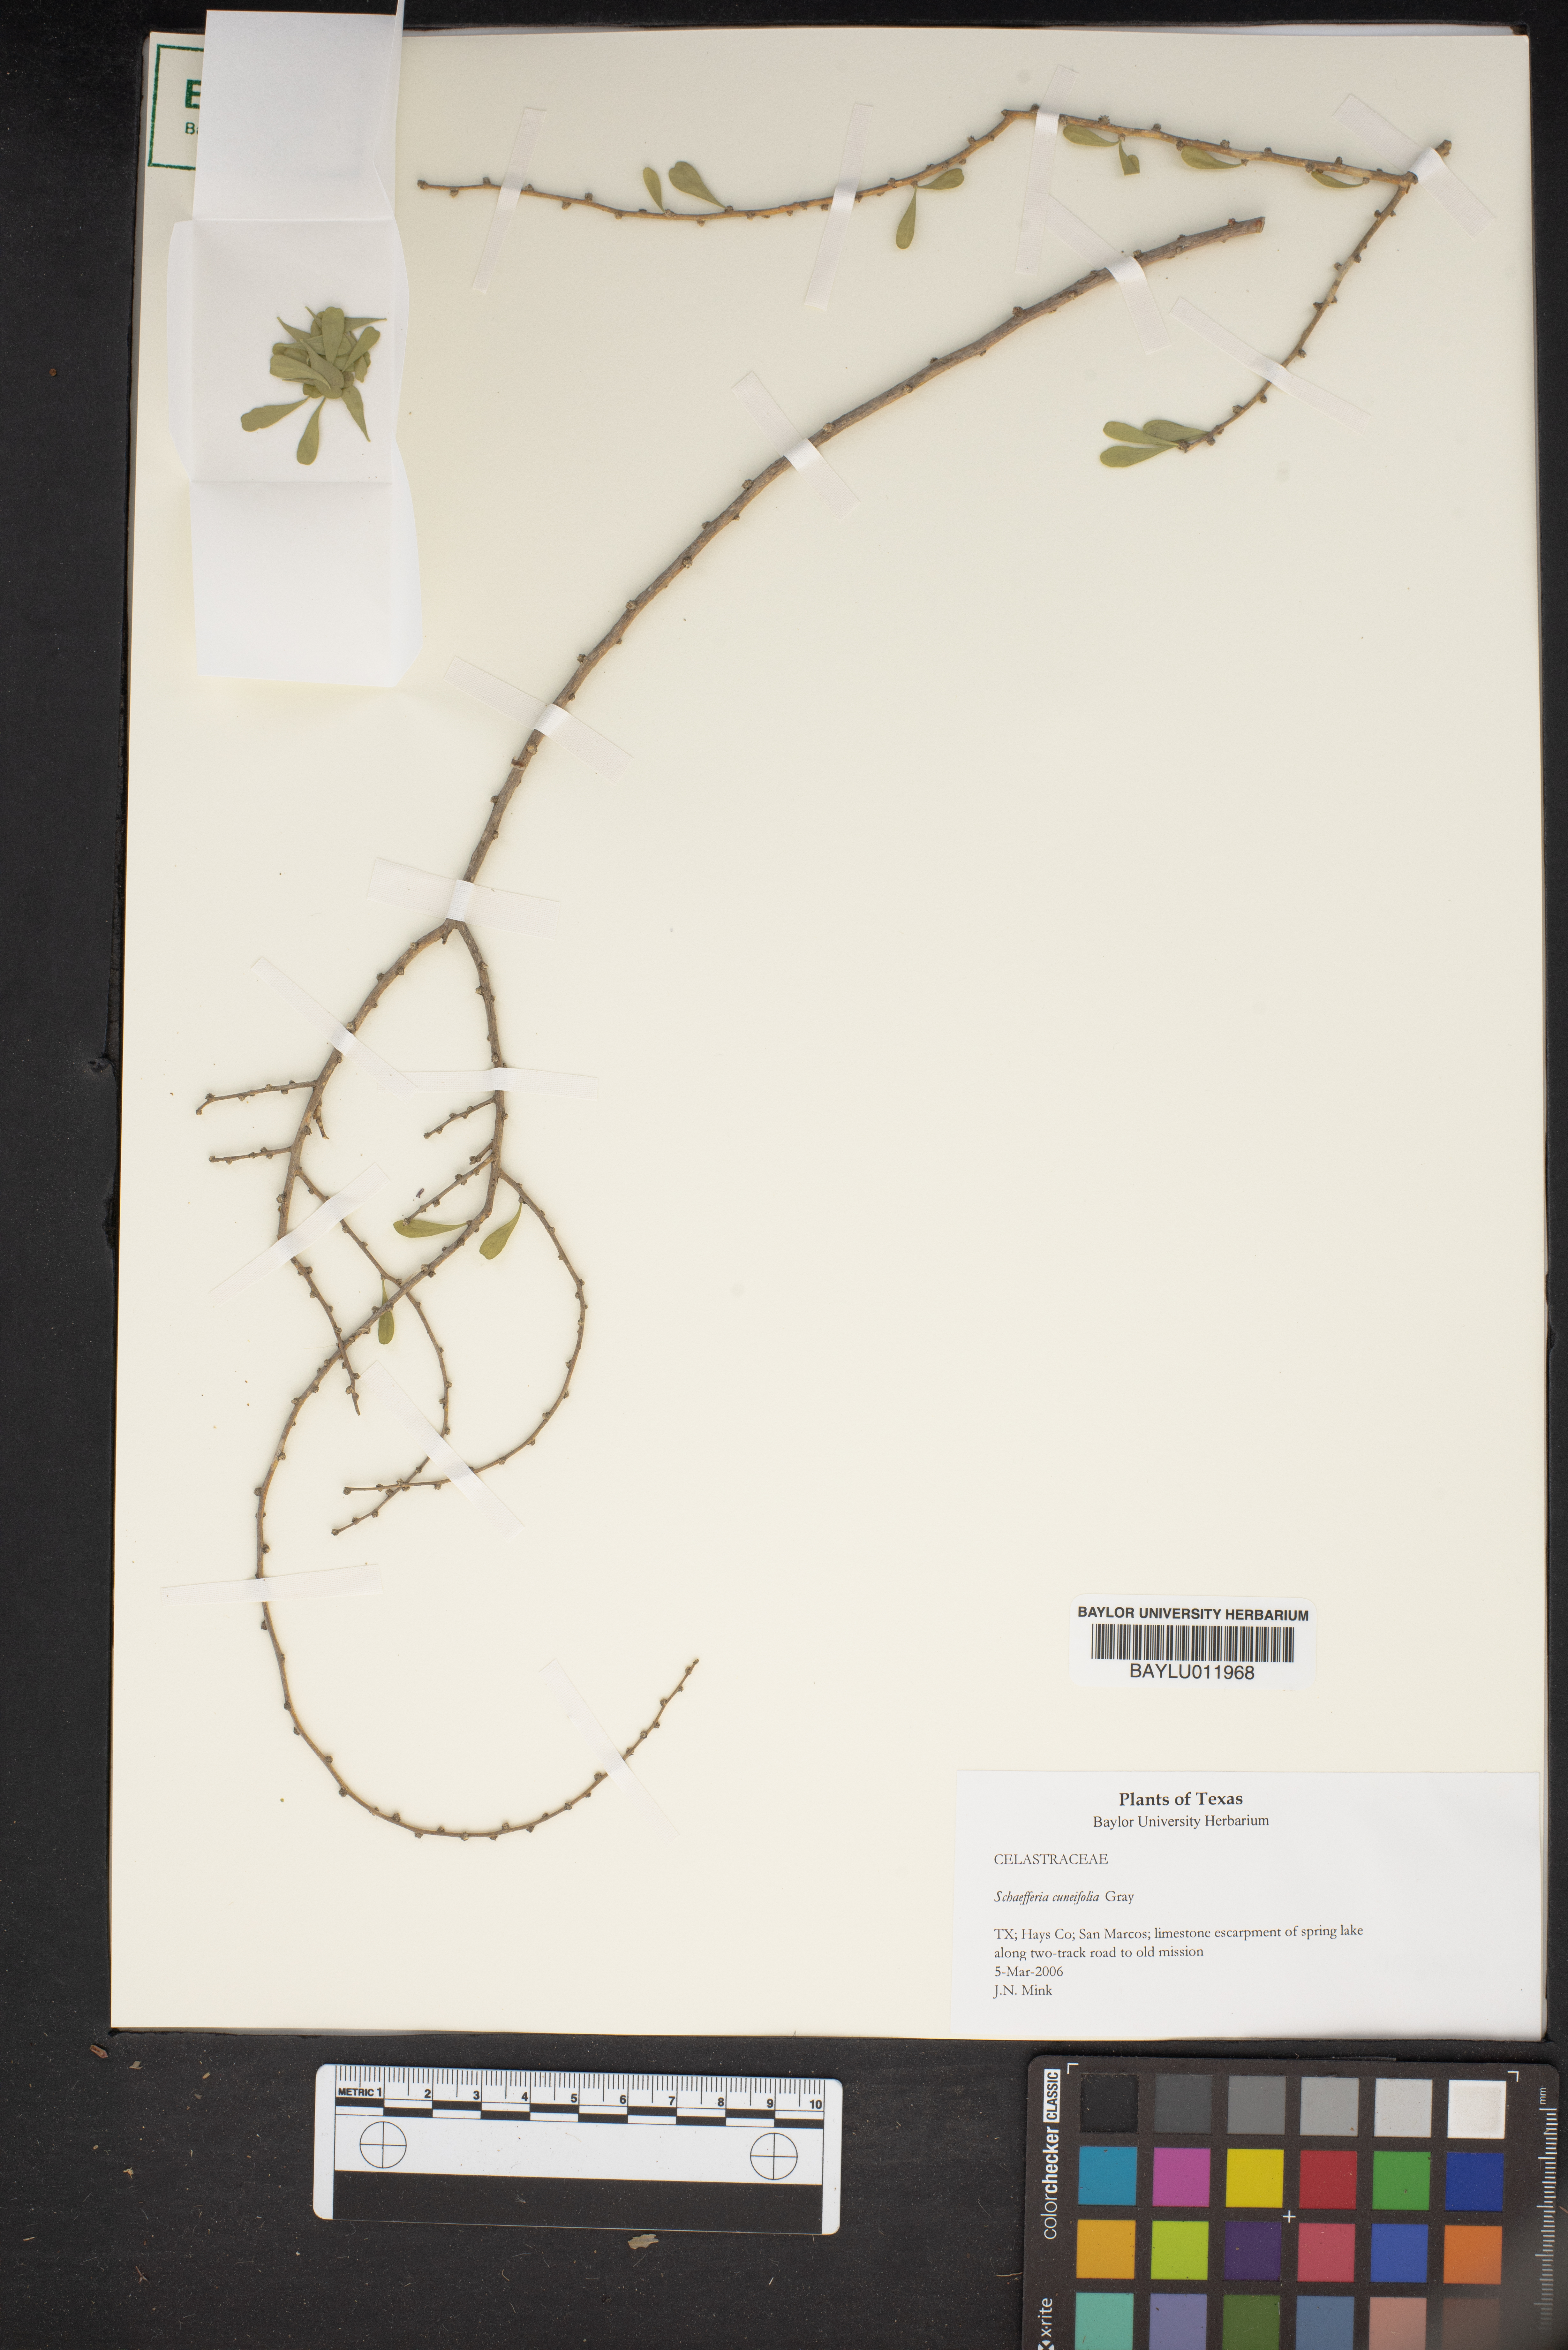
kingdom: Plantae
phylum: Tracheophyta
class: Magnoliopsida
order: Celastrales
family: Celastraceae
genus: Schaefferia
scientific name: Schaefferia cuneifolia
